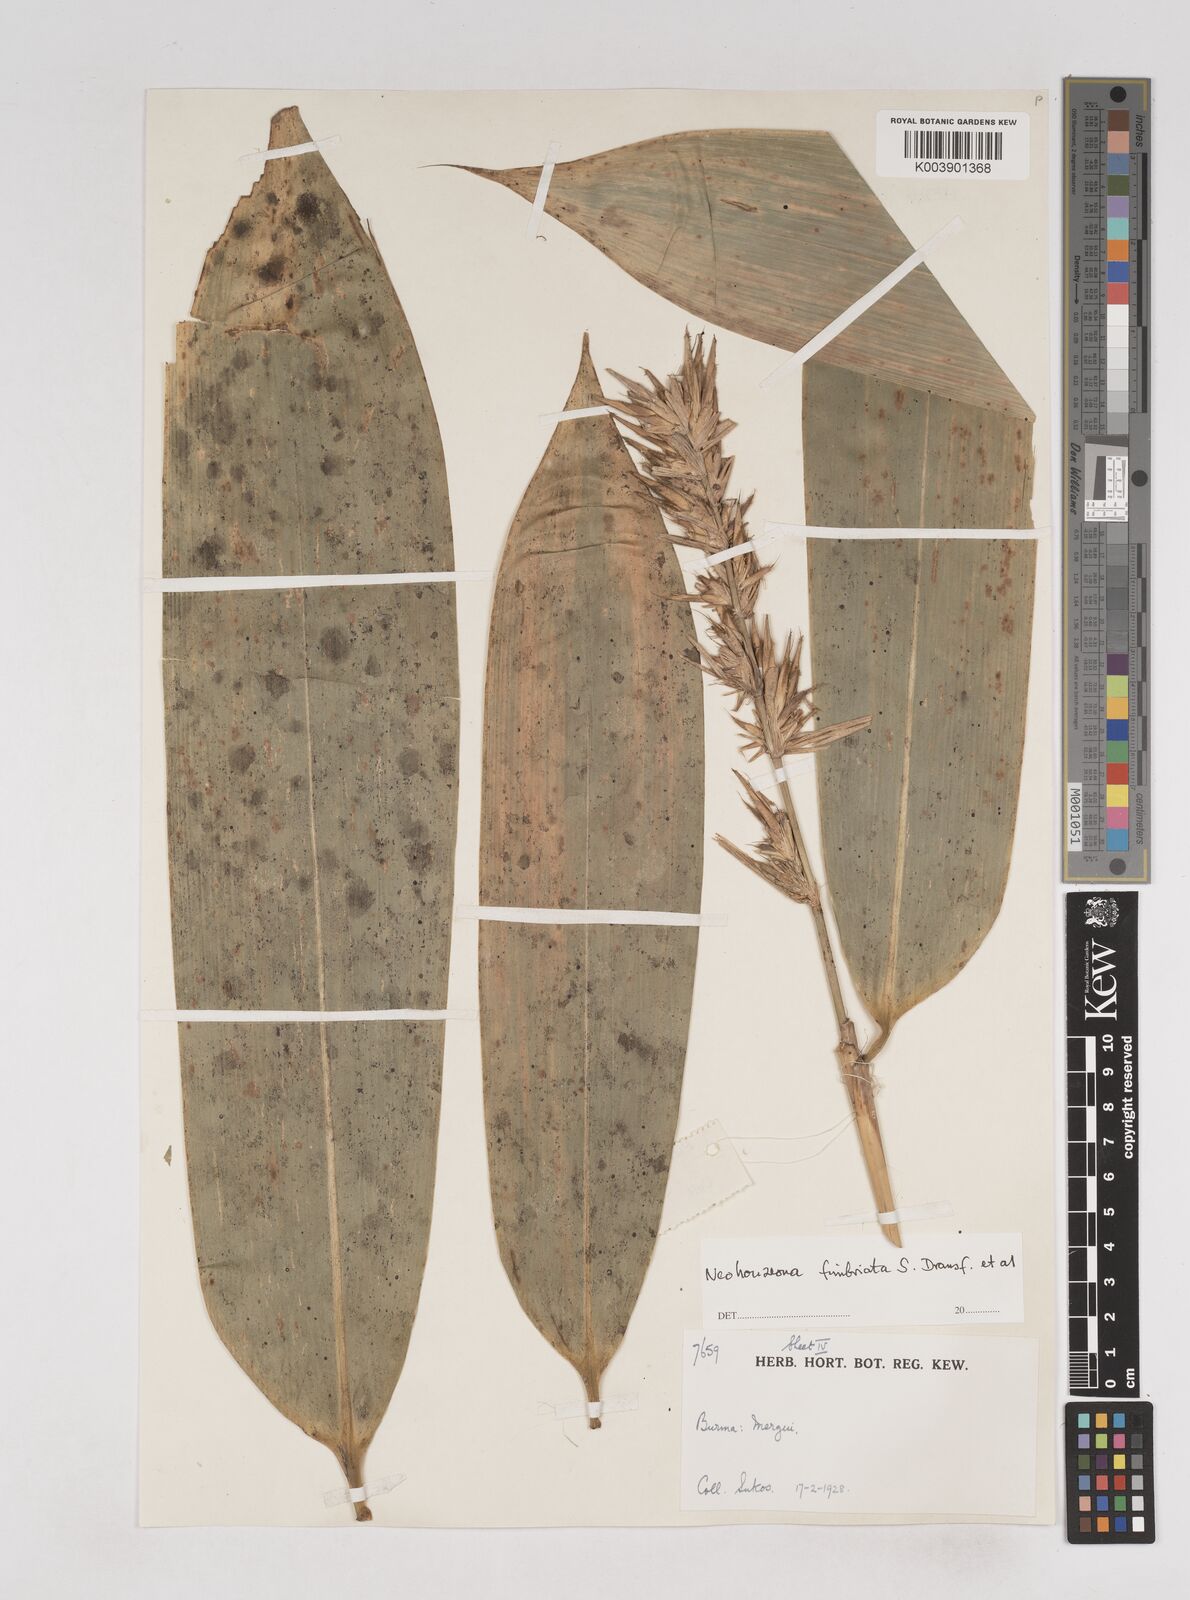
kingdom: Plantae
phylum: Tracheophyta
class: Liliopsida
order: Poales
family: Poaceae
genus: Schizostachyum
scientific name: Schizostachyum
